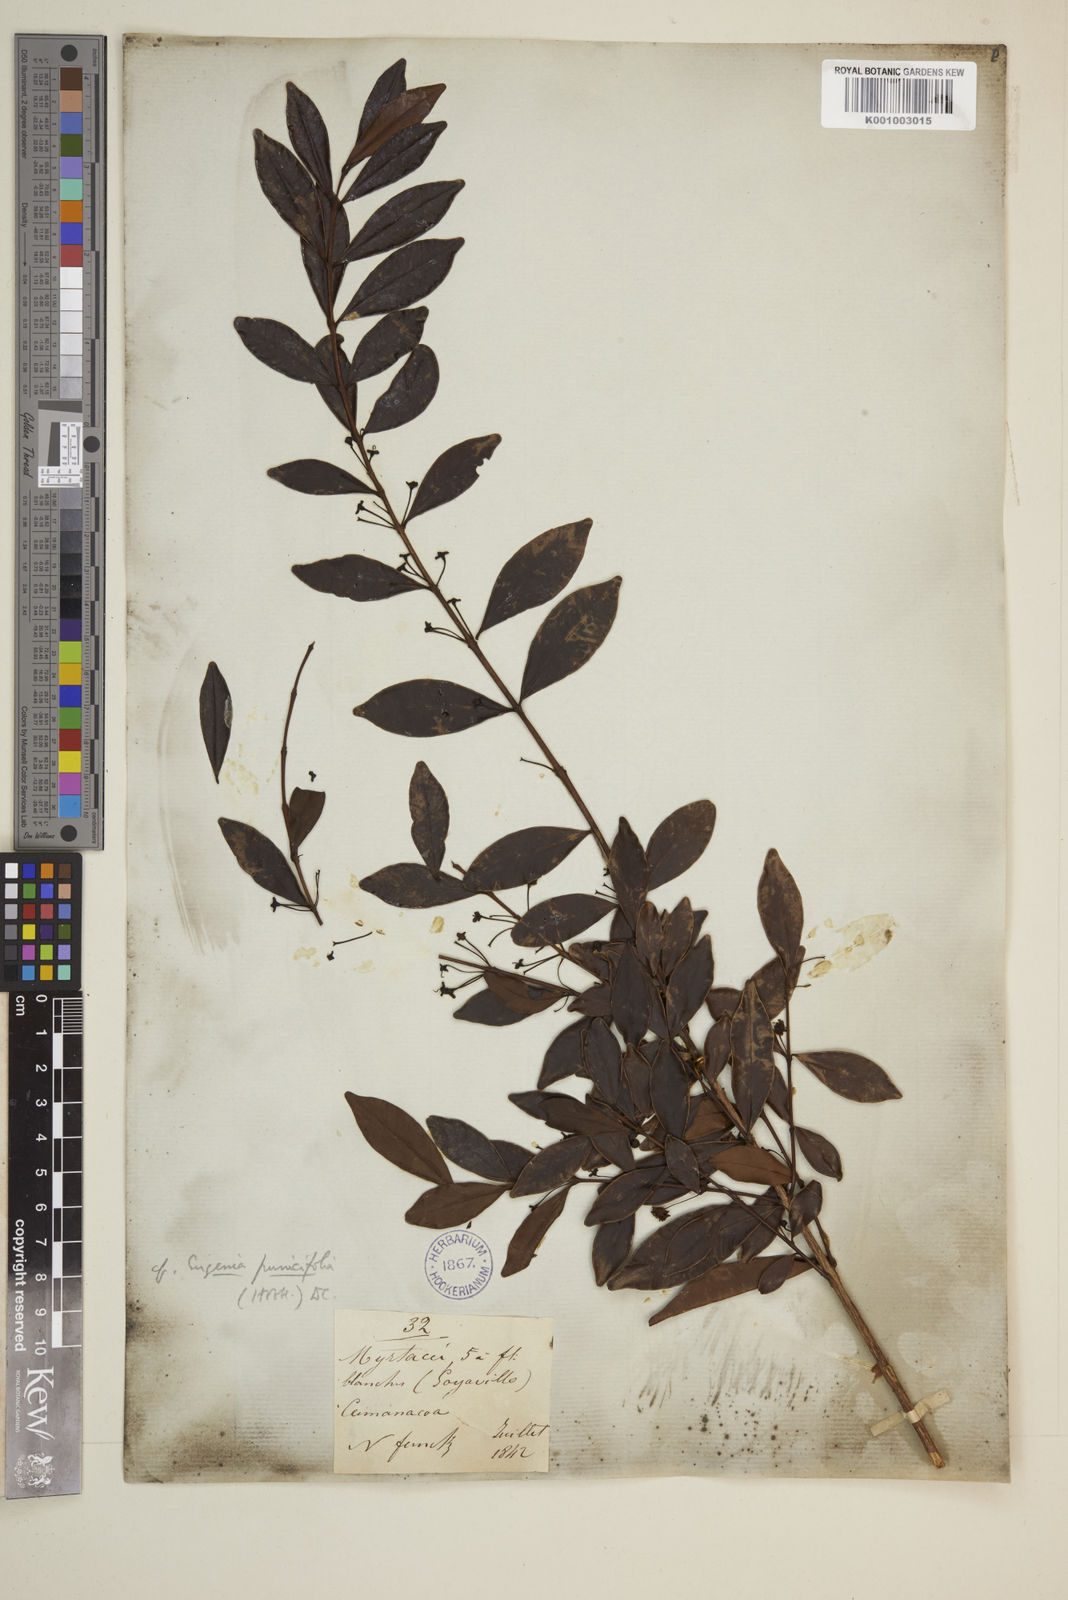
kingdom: Plantae
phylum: Tracheophyta
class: Magnoliopsida
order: Myrtales
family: Myrtaceae
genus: Eugenia
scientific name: Eugenia punicifolia
